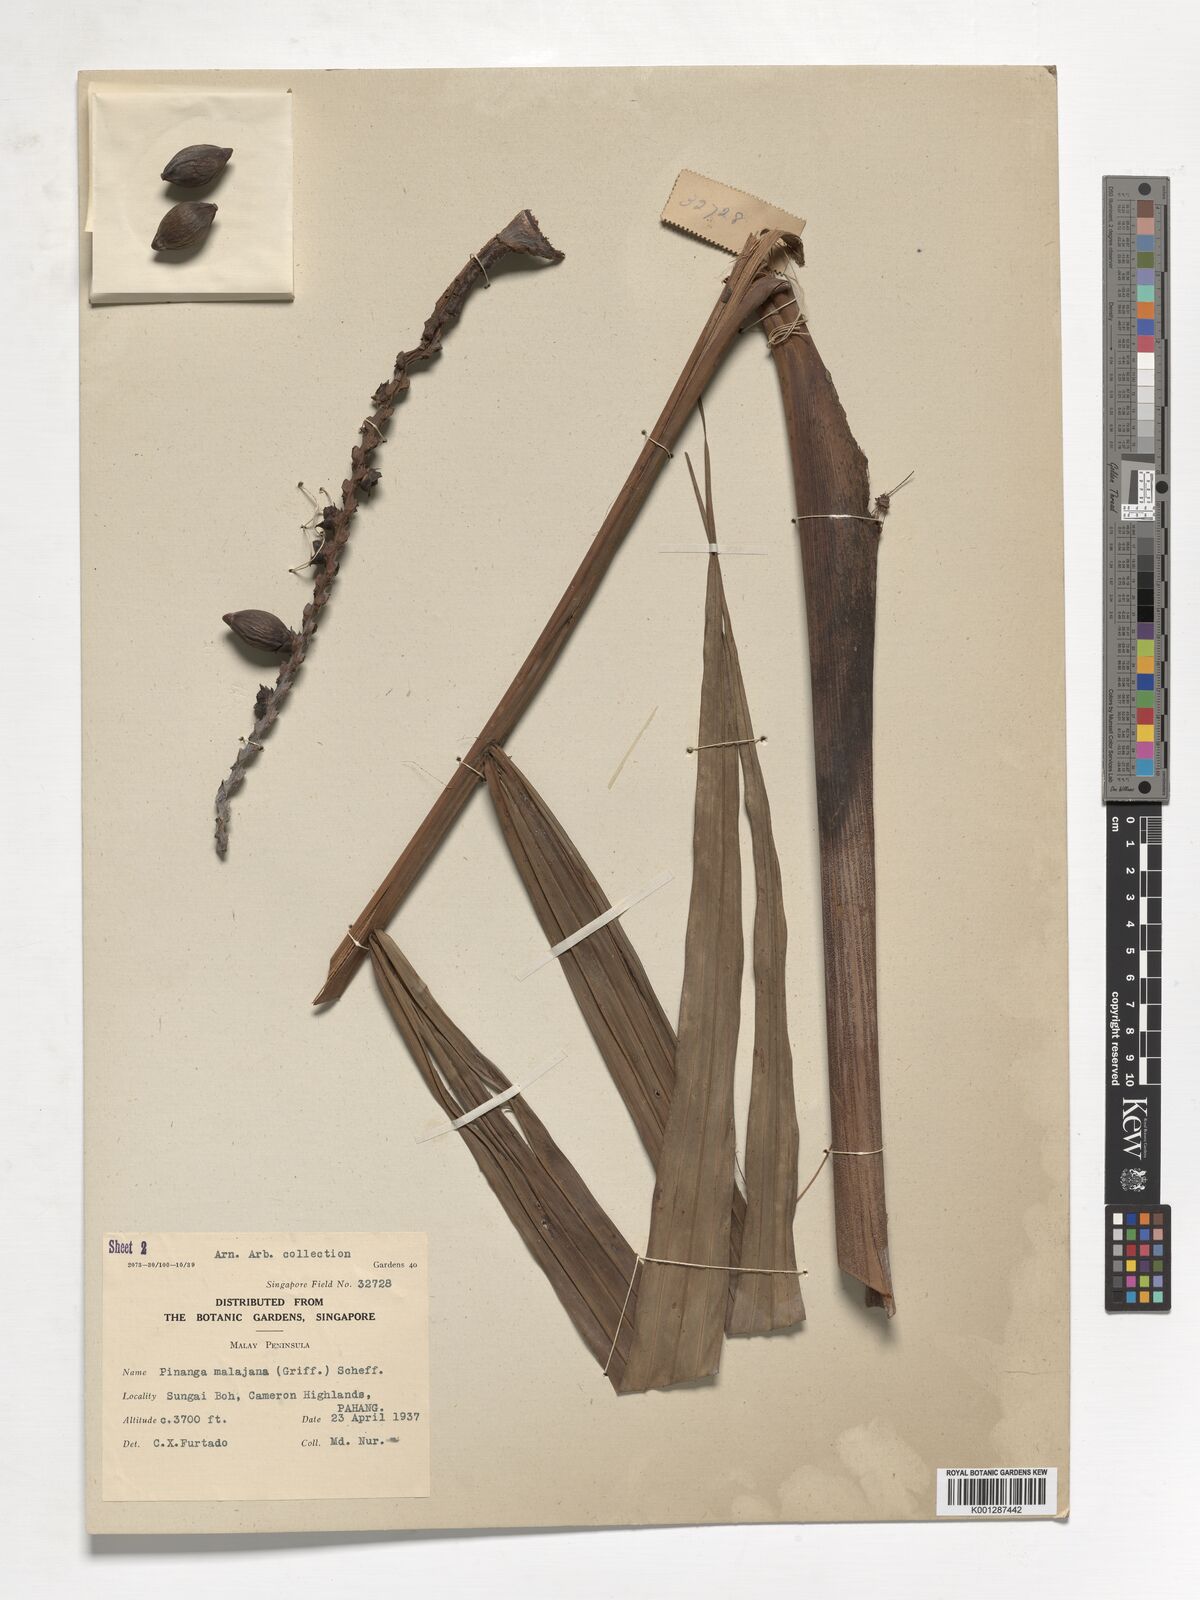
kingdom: Plantae
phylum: Tracheophyta
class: Liliopsida
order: Arecales
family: Arecaceae
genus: Pinanga
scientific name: Pinanga malaiana
